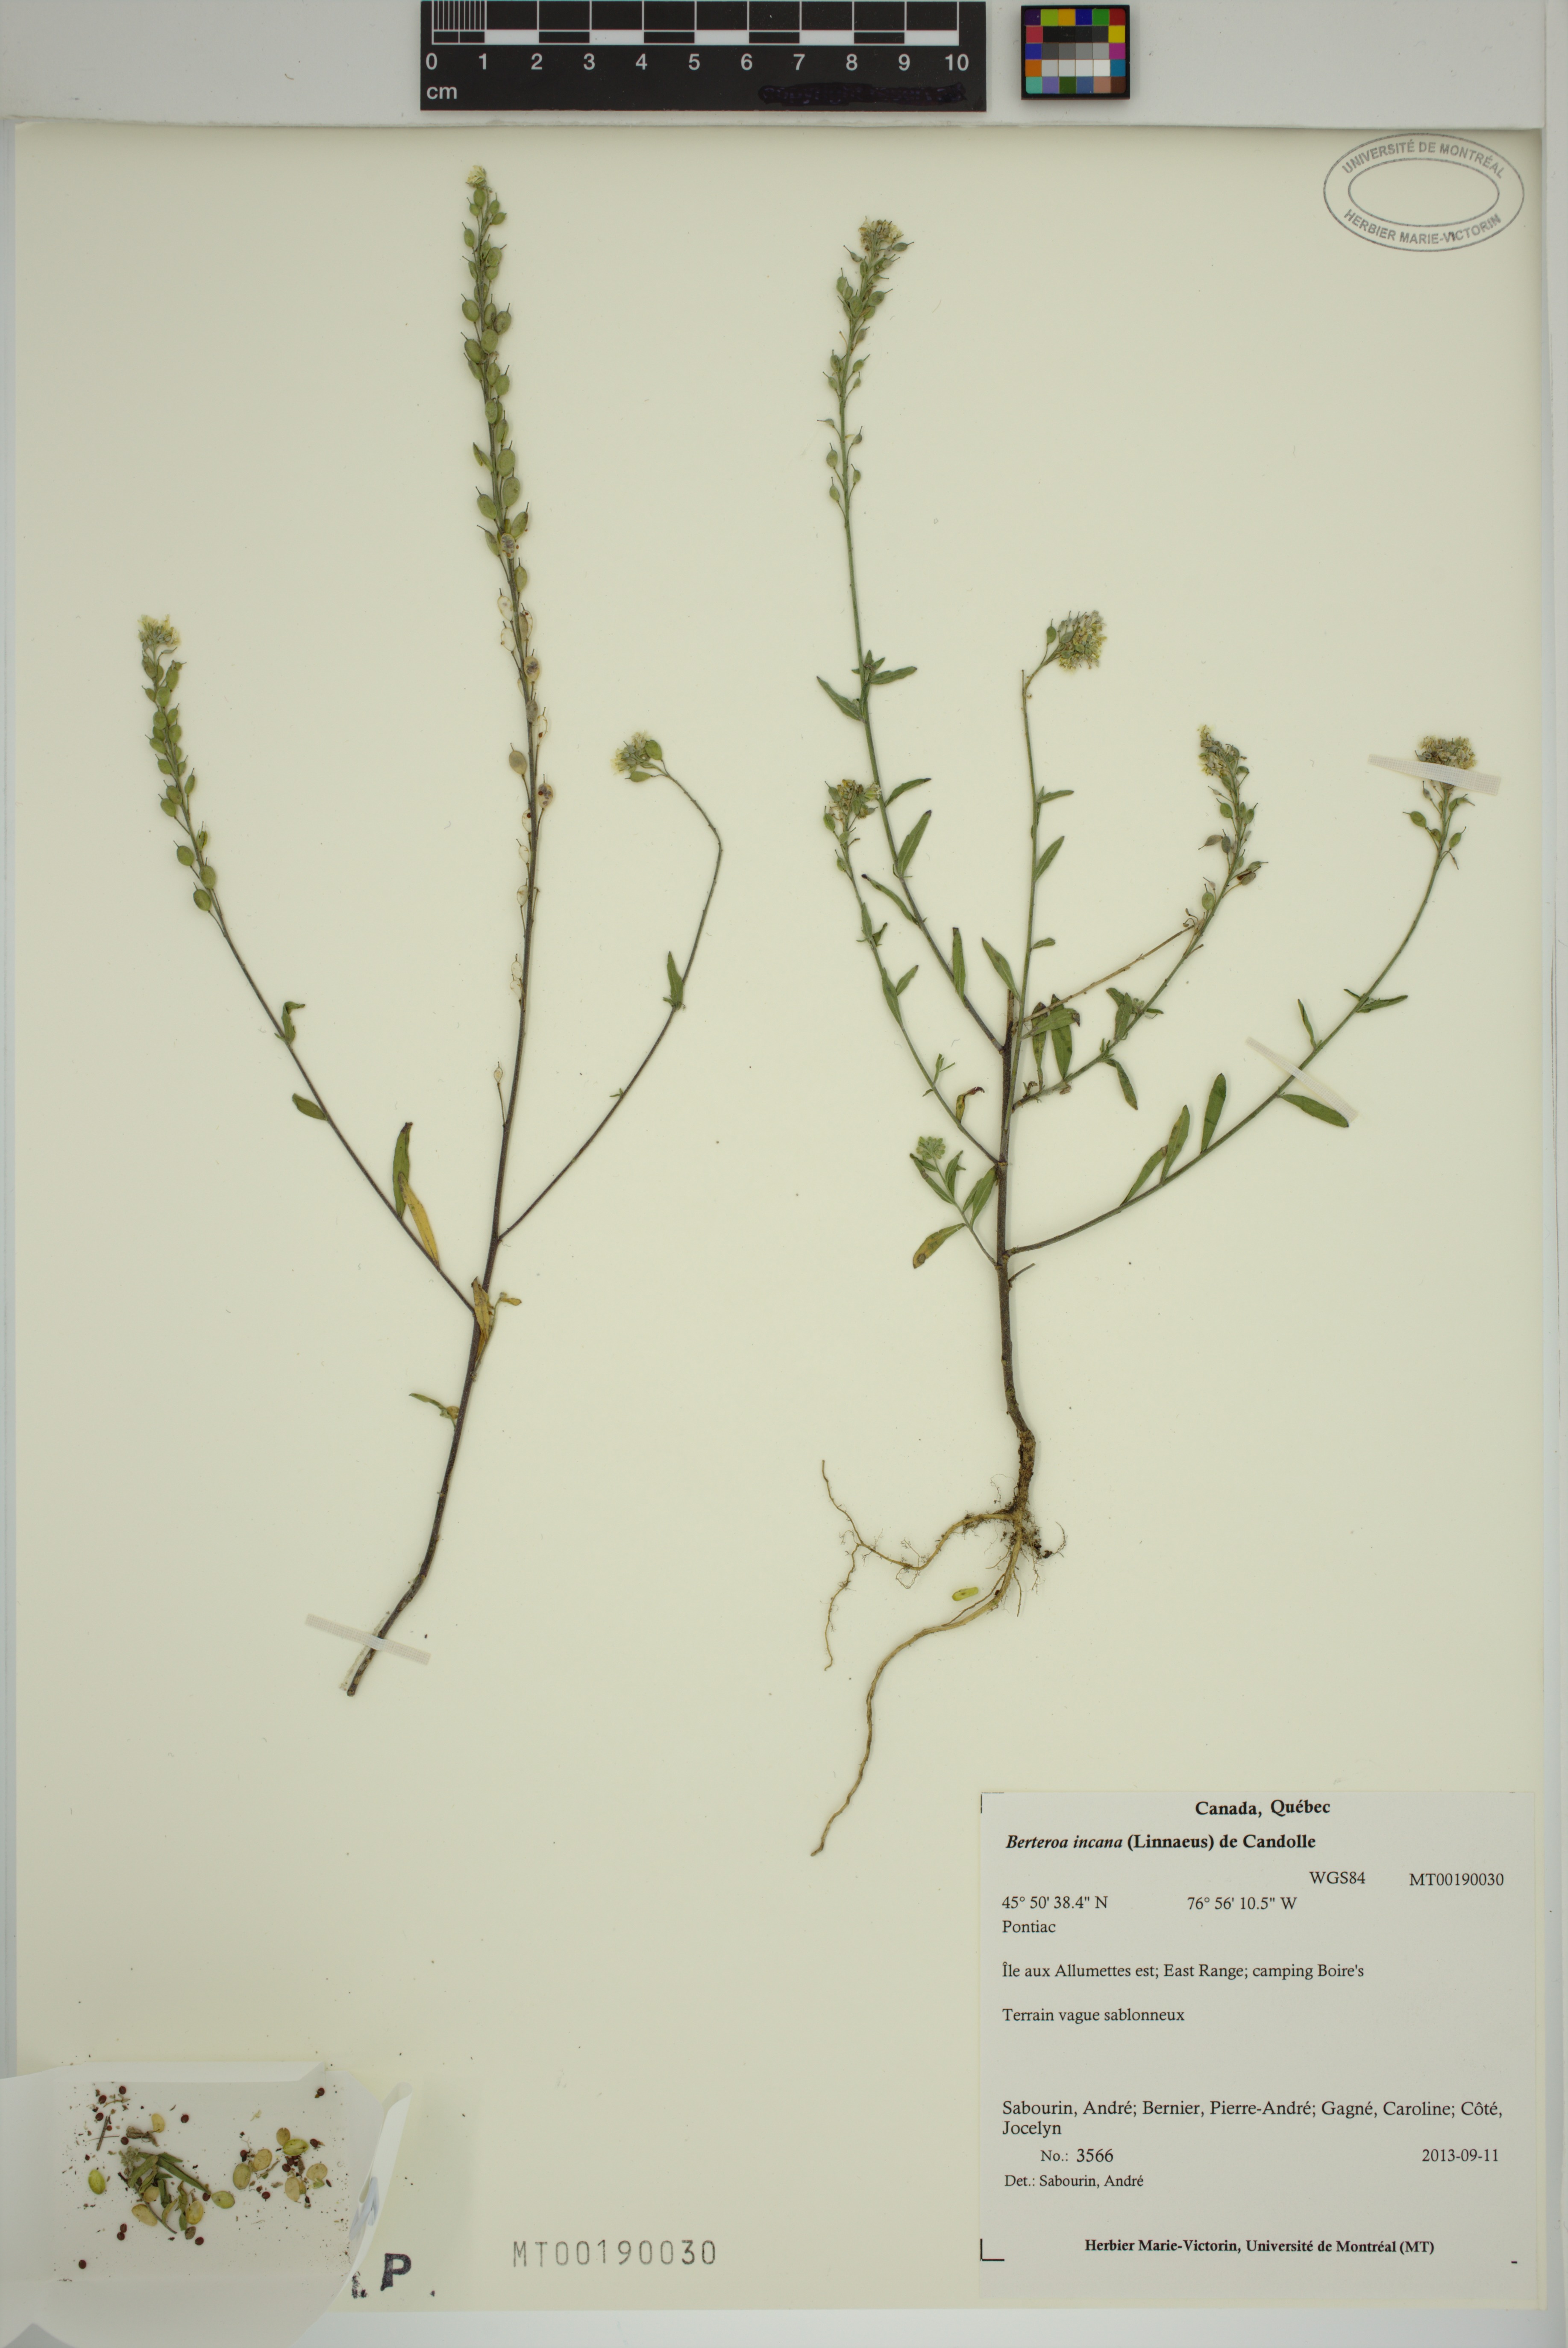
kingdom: Plantae
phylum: Tracheophyta
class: Magnoliopsida
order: Brassicales
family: Brassicaceae
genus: Berteroa
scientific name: Berteroa incana
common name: Hoary alison
